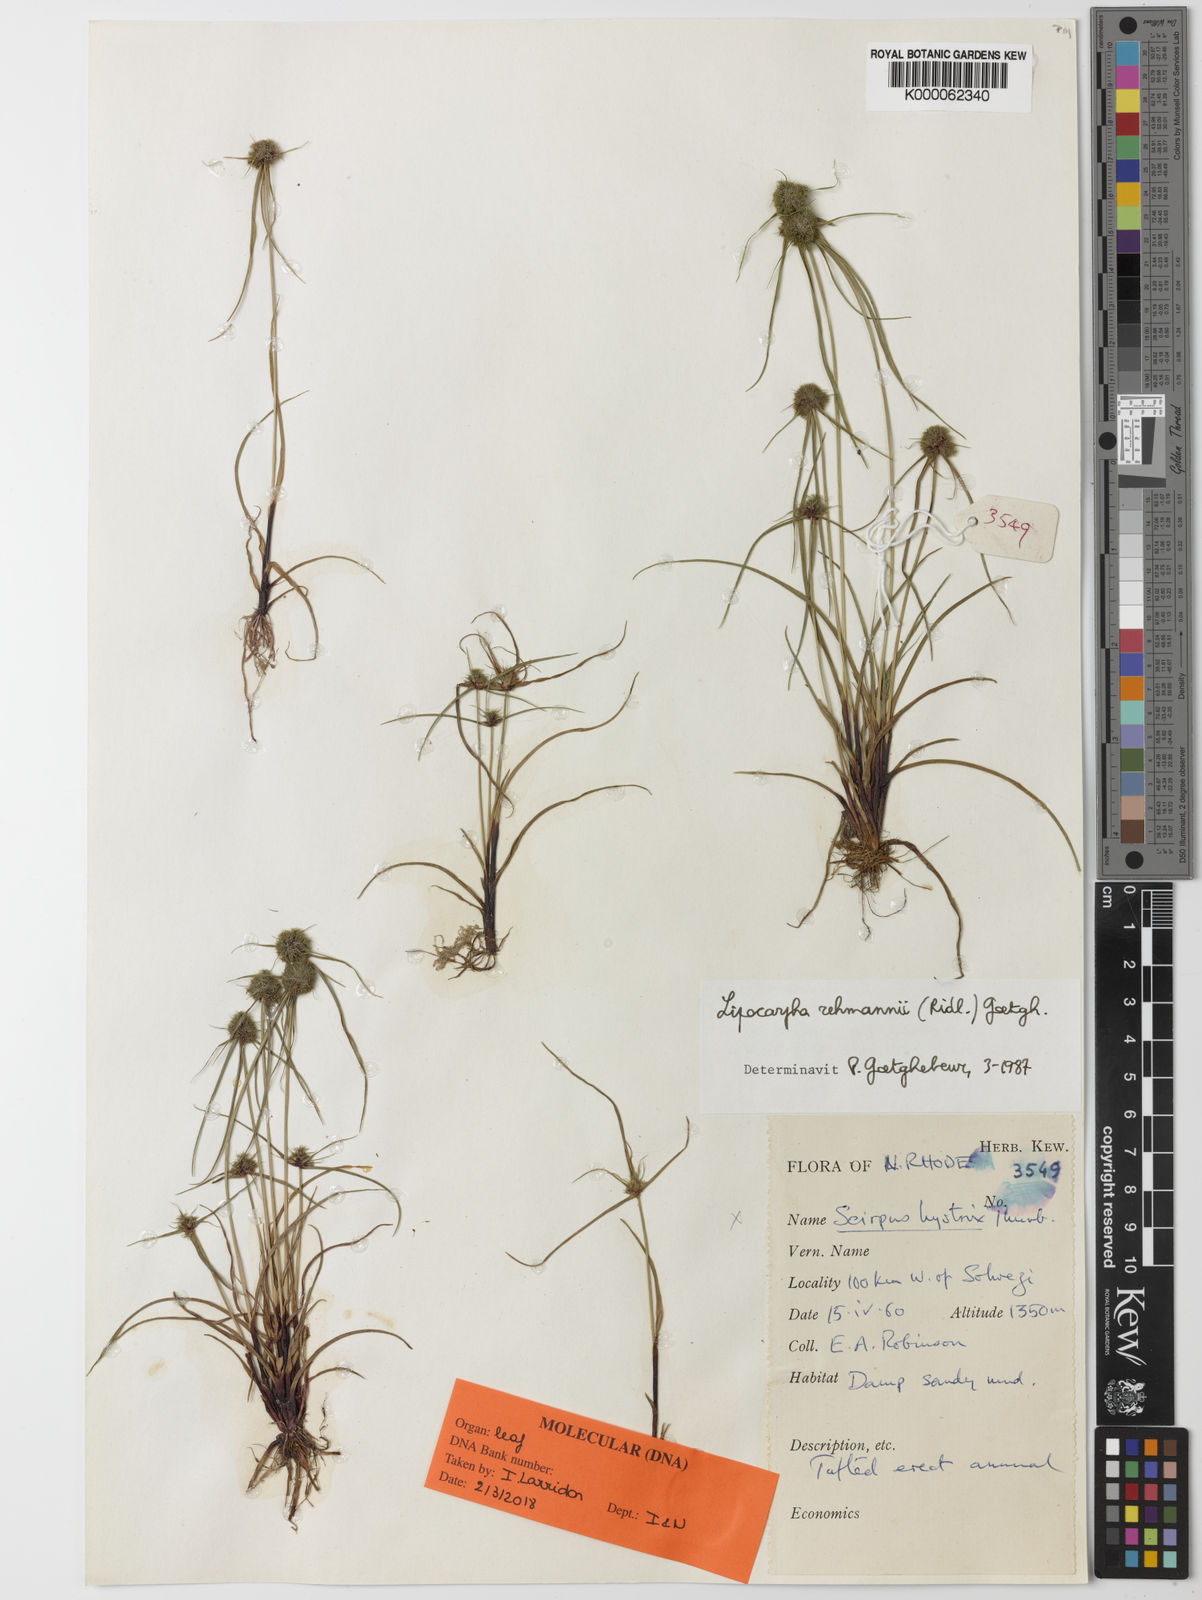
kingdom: Plantae
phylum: Tracheophyta
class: Liliopsida
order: Poales
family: Cyperaceae
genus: Cyperus
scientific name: Cyperus sanguinolentus
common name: Purpleglume flatsedge
